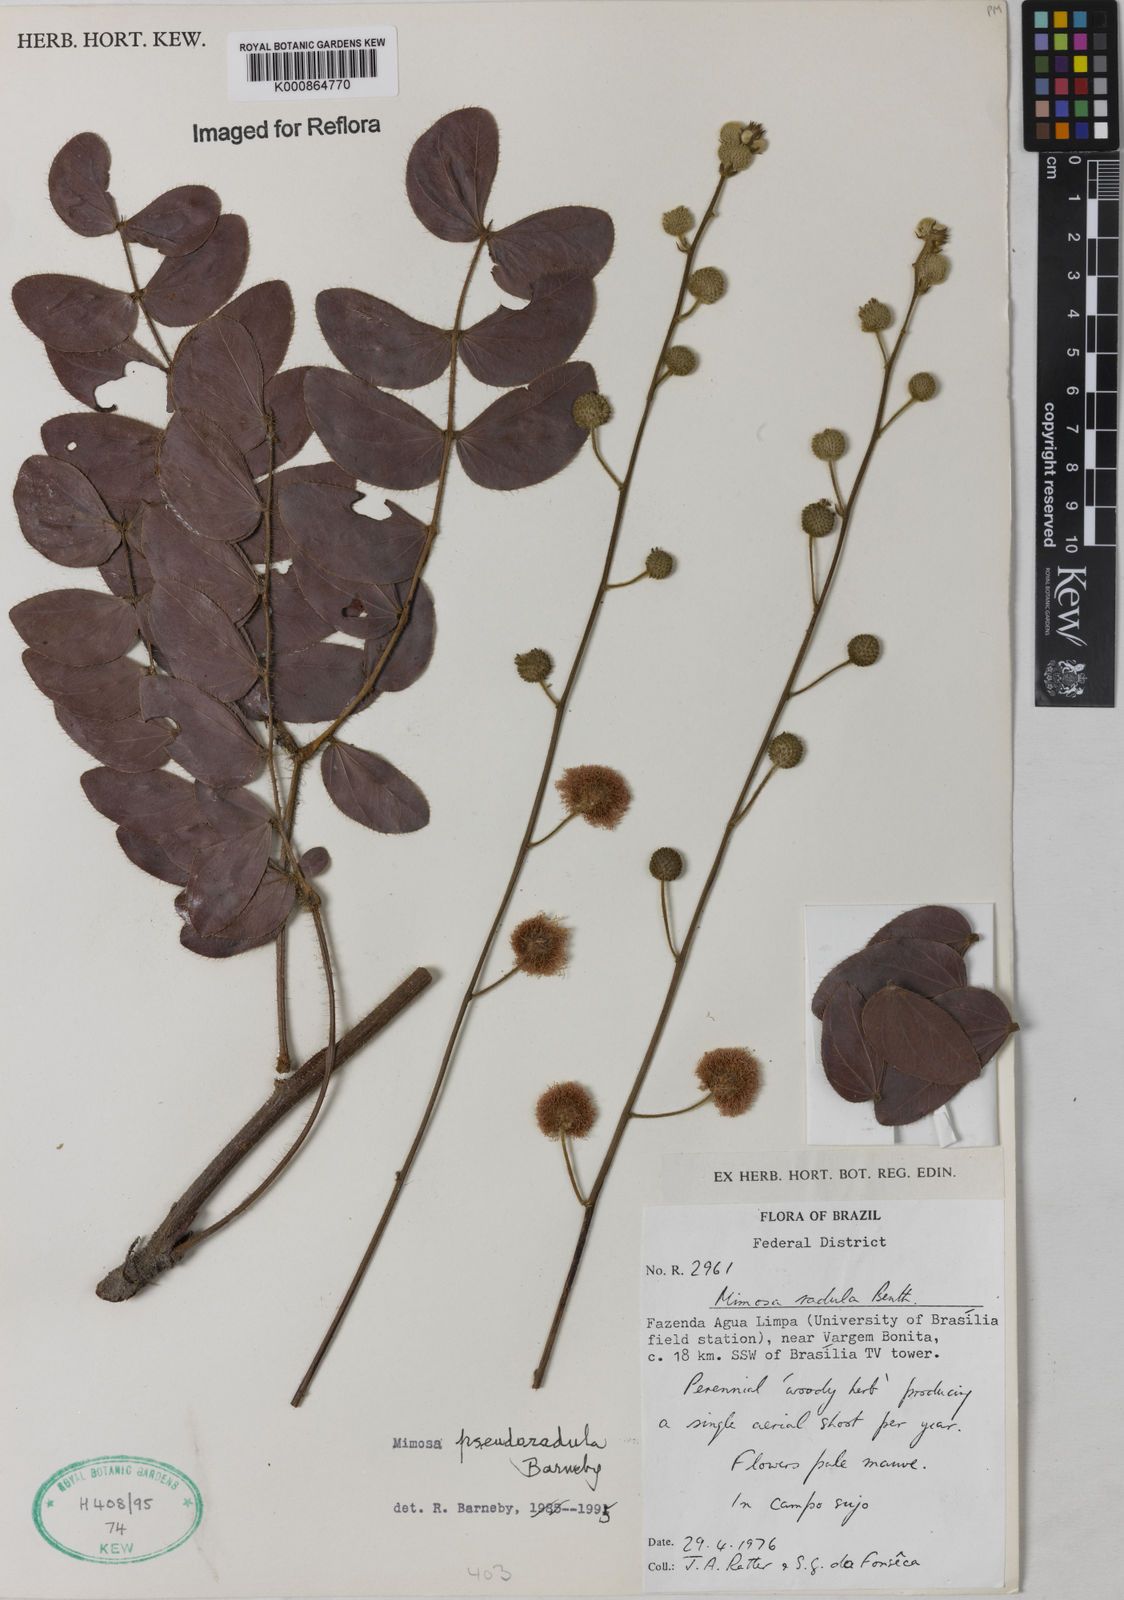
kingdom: Plantae
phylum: Tracheophyta
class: Magnoliopsida
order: Fabales
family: Fabaceae
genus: Mimosa
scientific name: Mimosa pseudoradula
